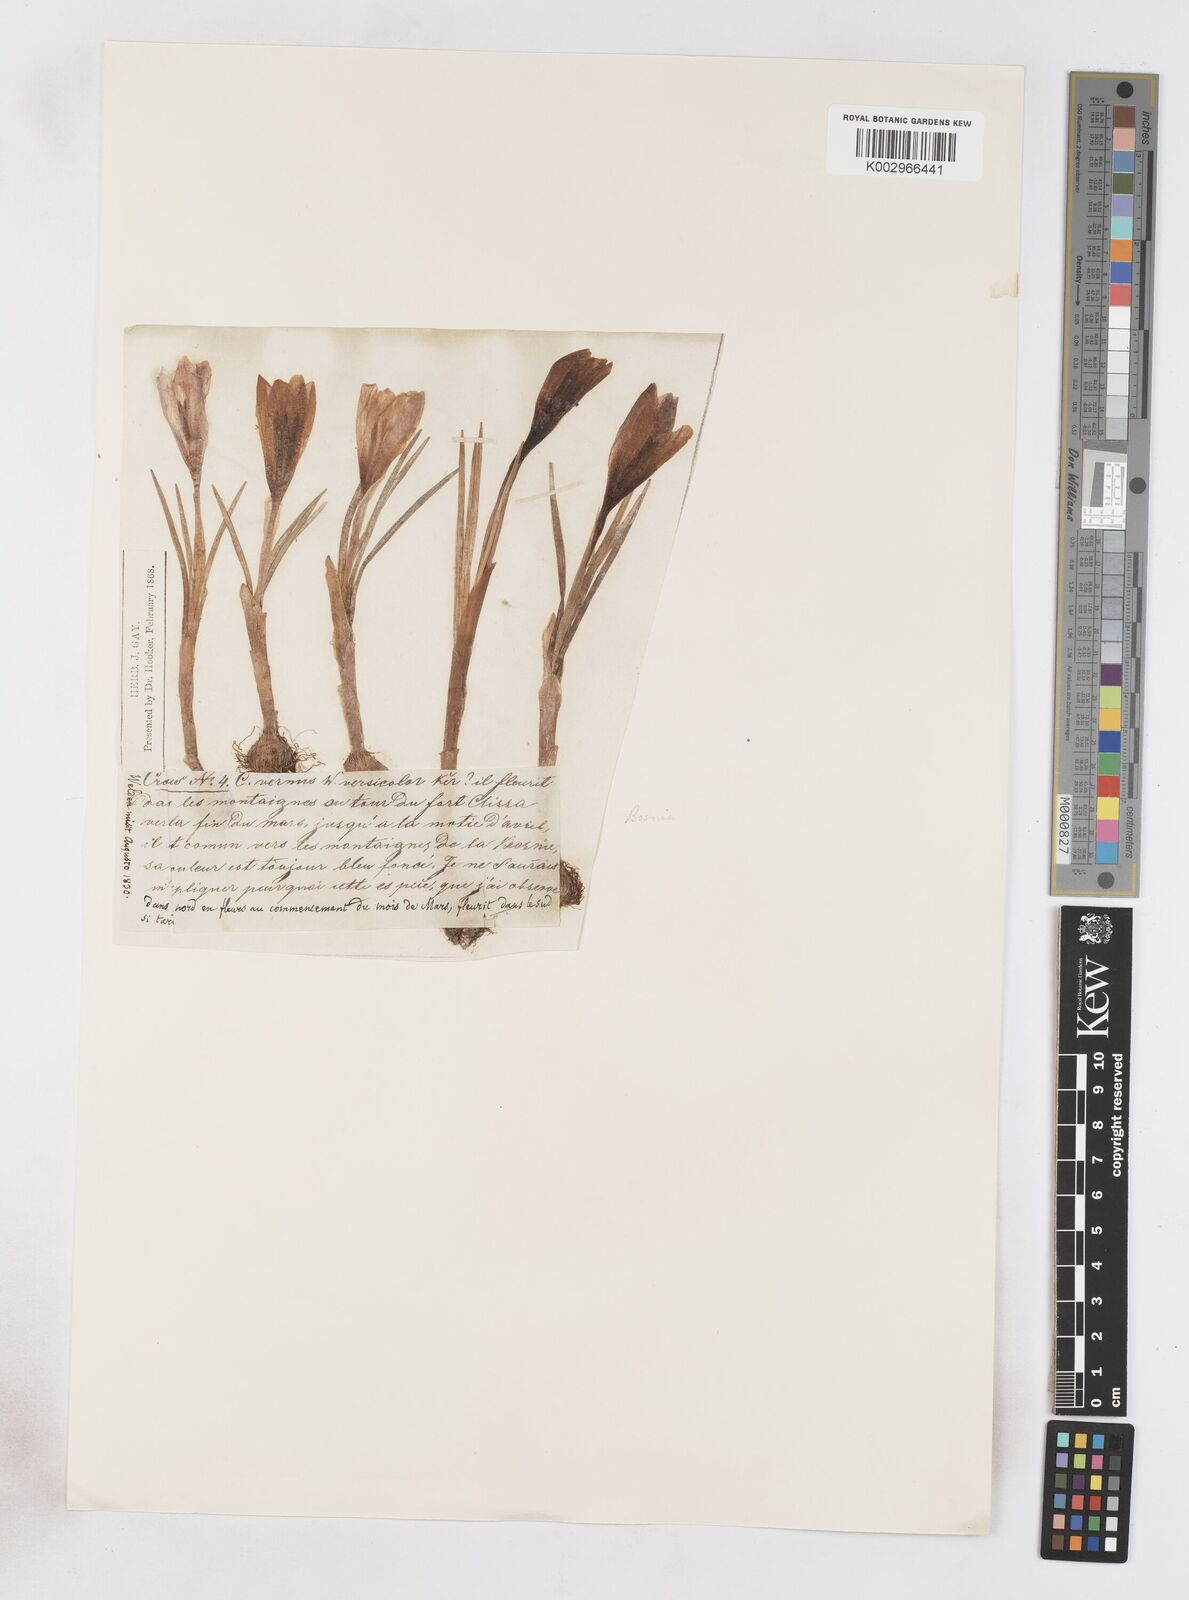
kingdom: Plantae
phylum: Tracheophyta
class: Liliopsida
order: Asparagales
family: Iridaceae
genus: Crocus
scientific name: Crocus vernus
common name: Spring crocus
